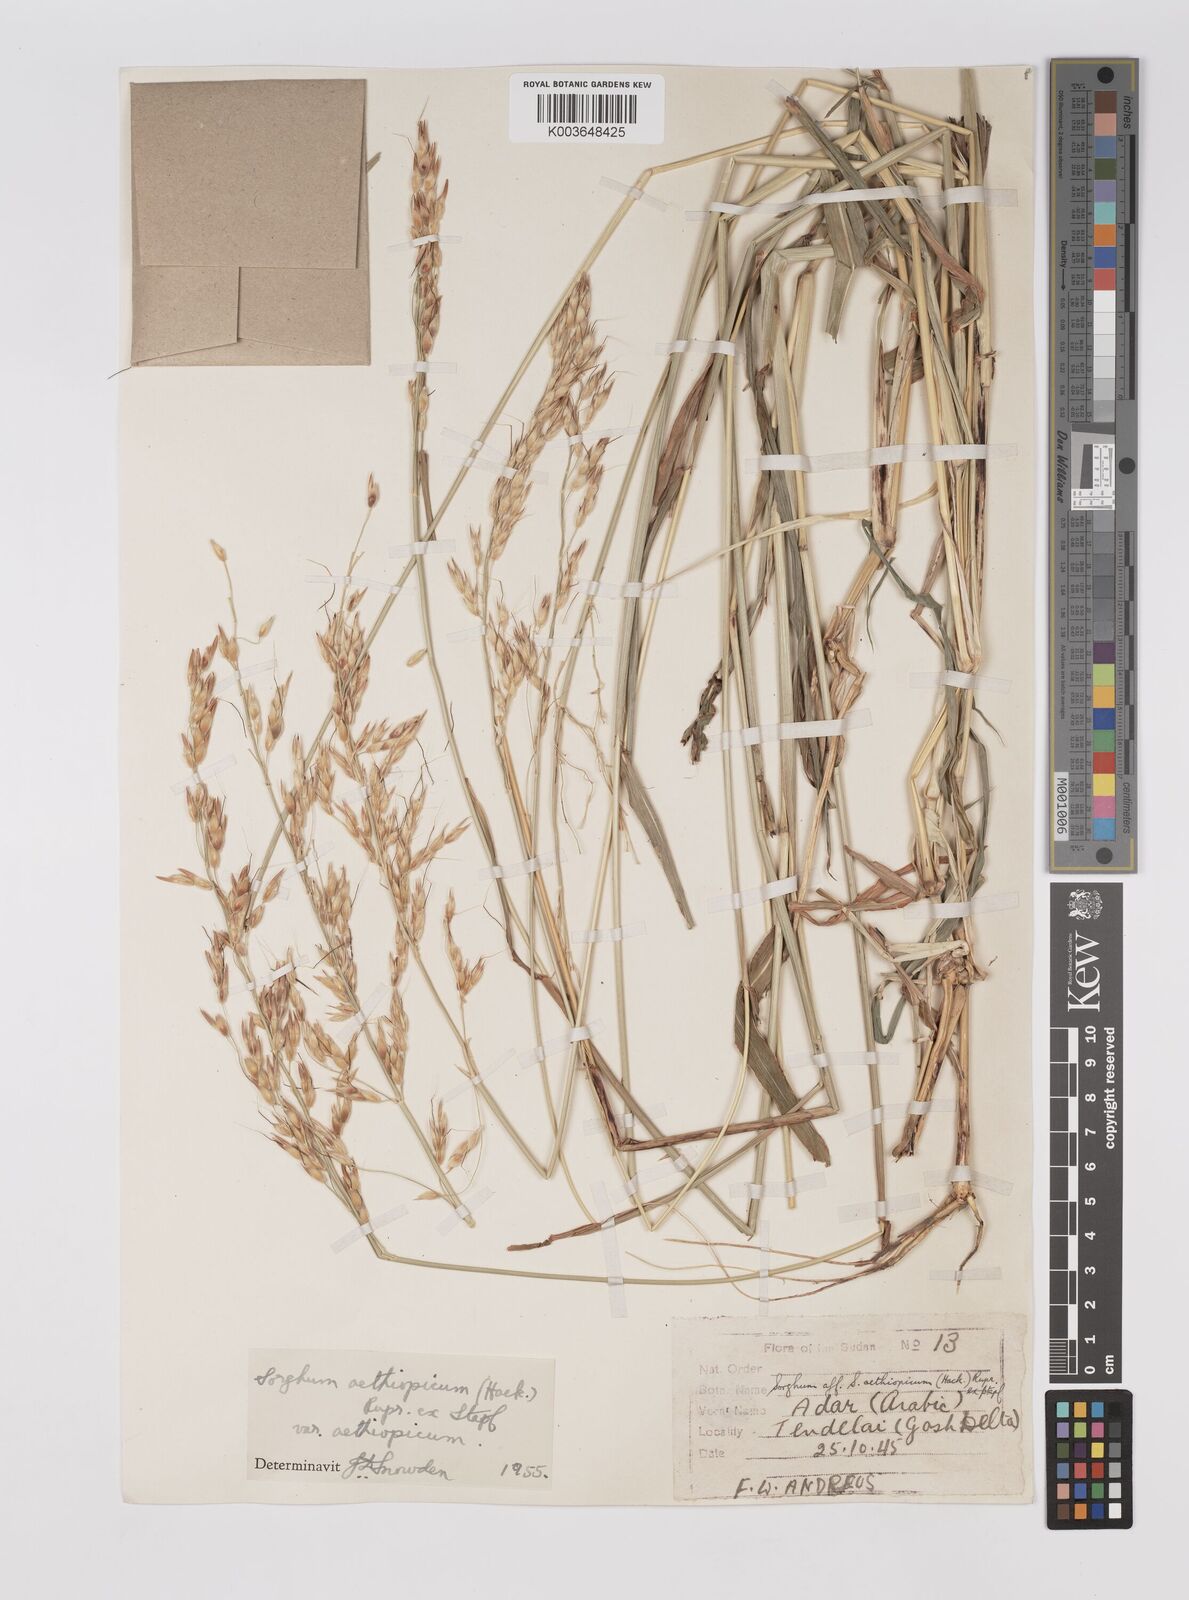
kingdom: Plantae
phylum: Tracheophyta
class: Liliopsida
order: Poales
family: Poaceae
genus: Sorghum
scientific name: Sorghum arundinaceum
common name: Sorghum
